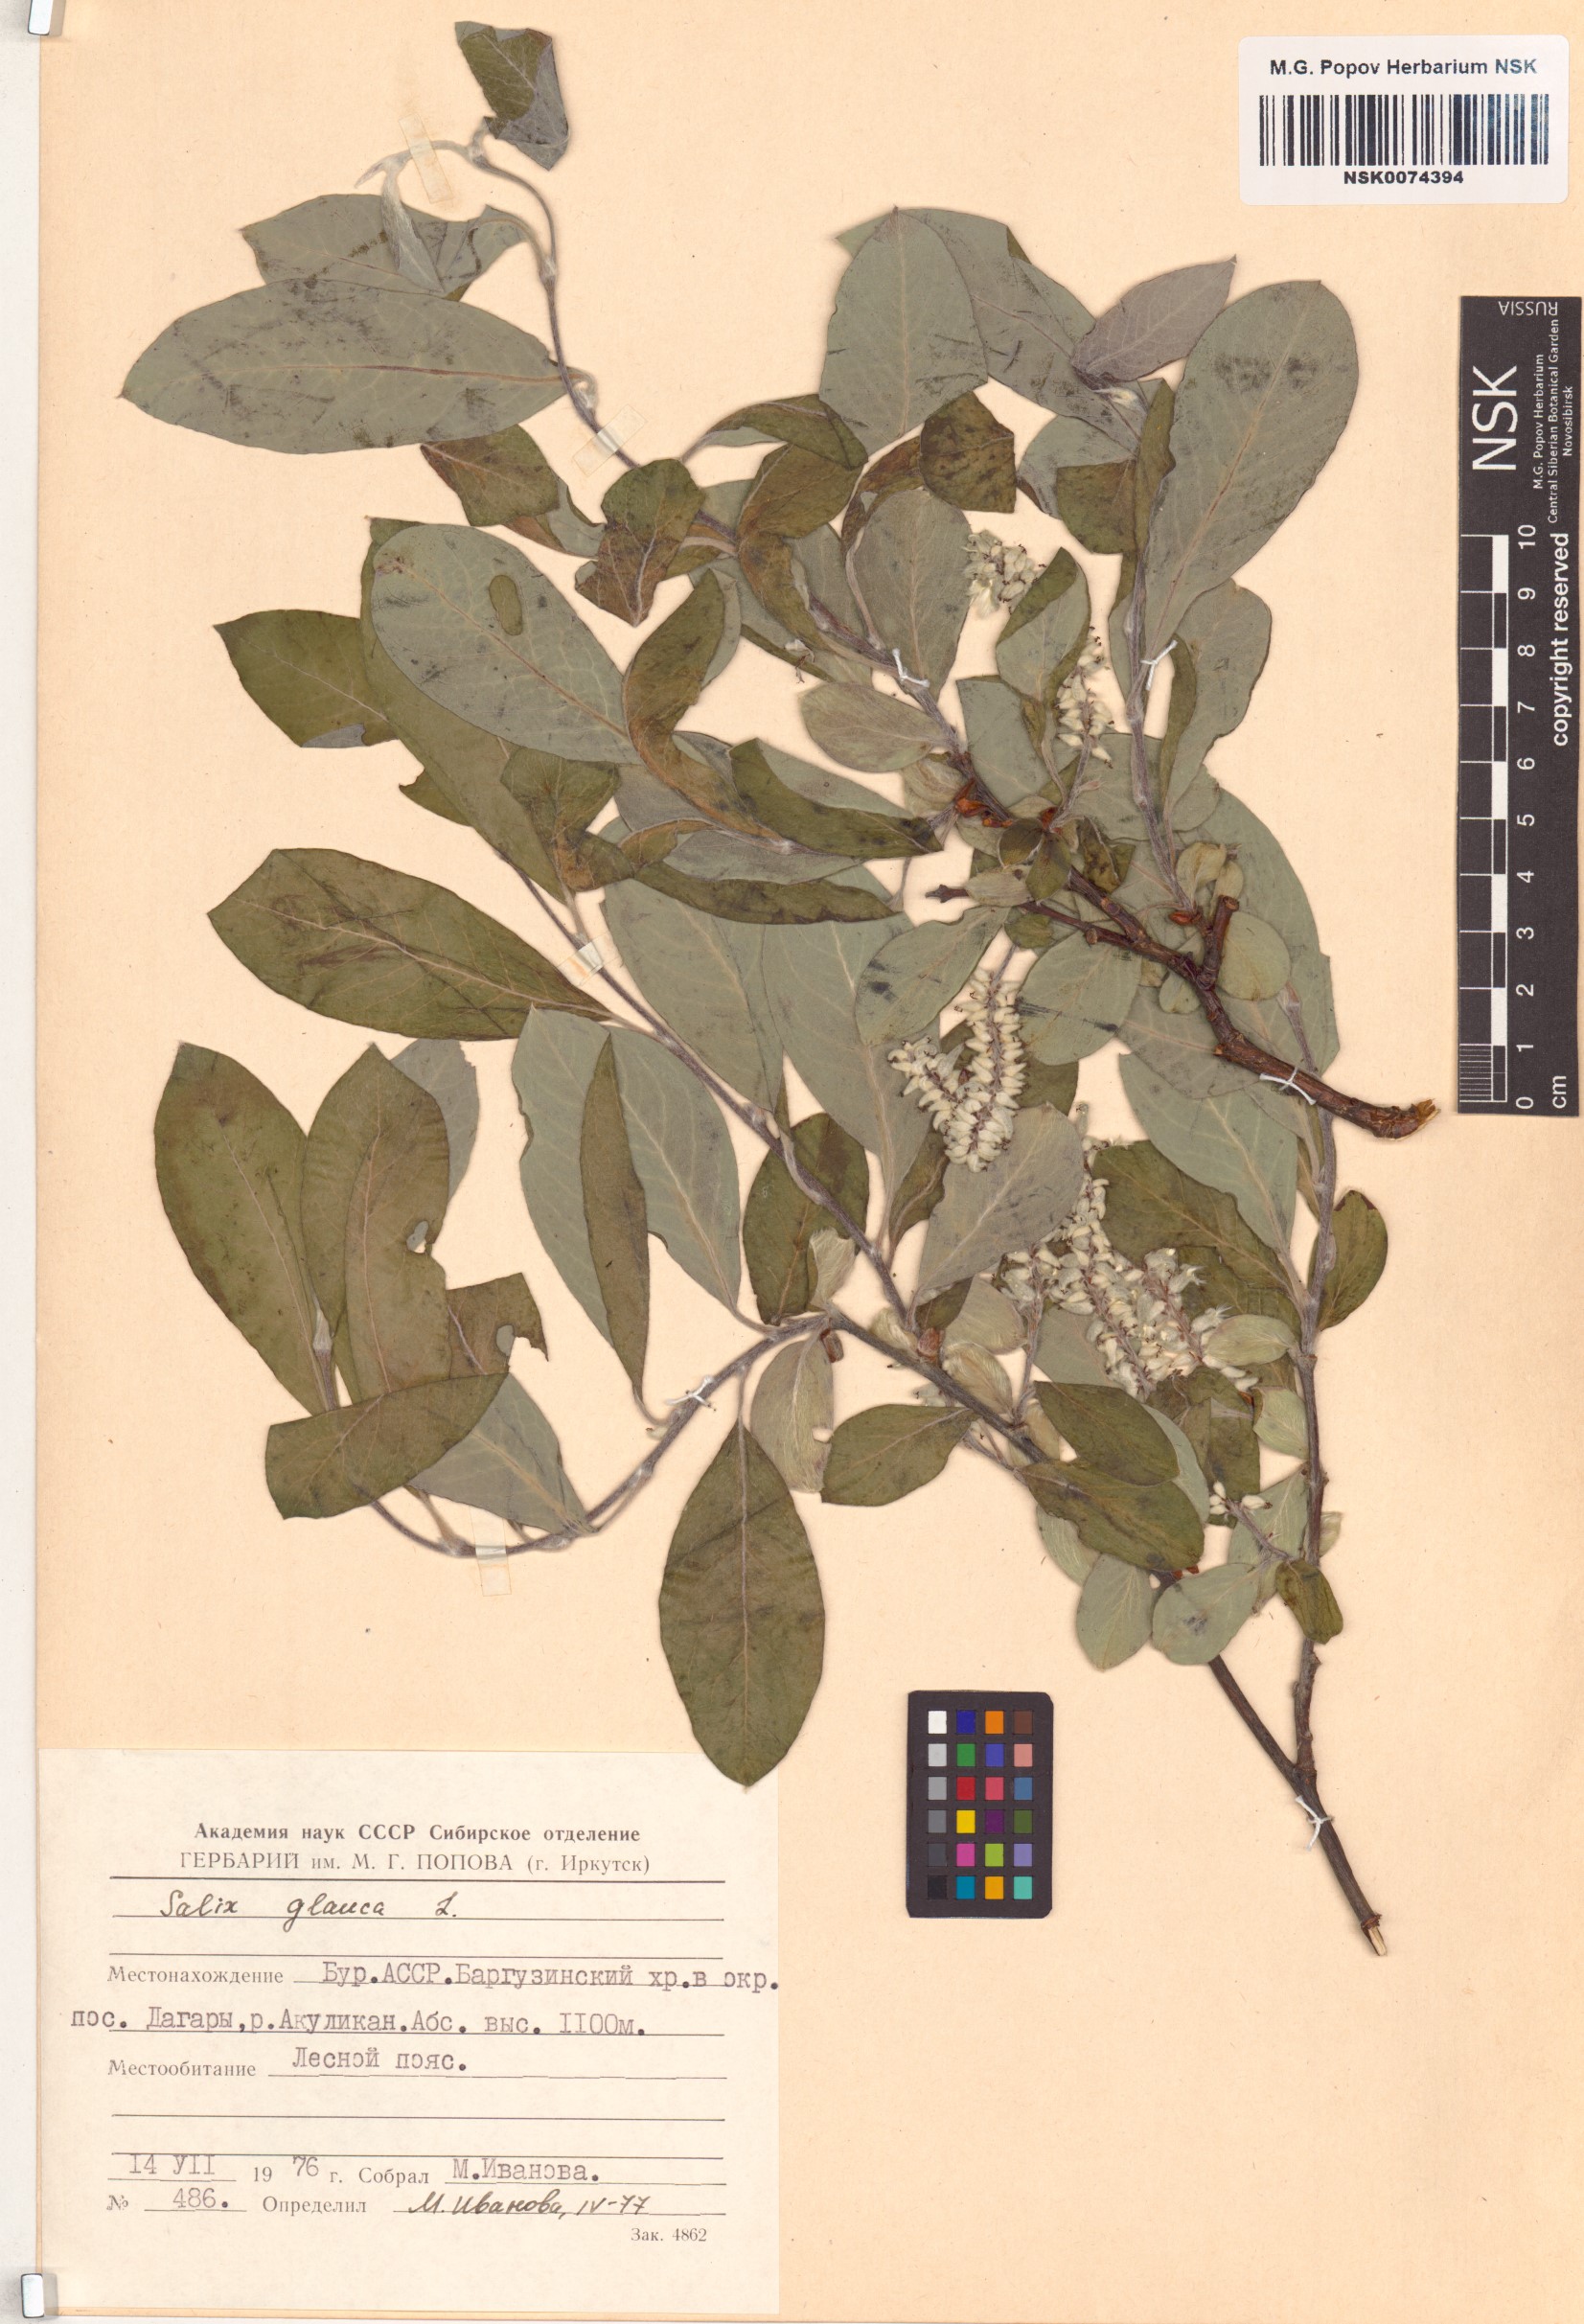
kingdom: Plantae
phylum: Tracheophyta
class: Magnoliopsida
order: Malpighiales
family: Salicaceae
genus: Salix
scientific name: Salix glauca
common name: Glaucous willow
